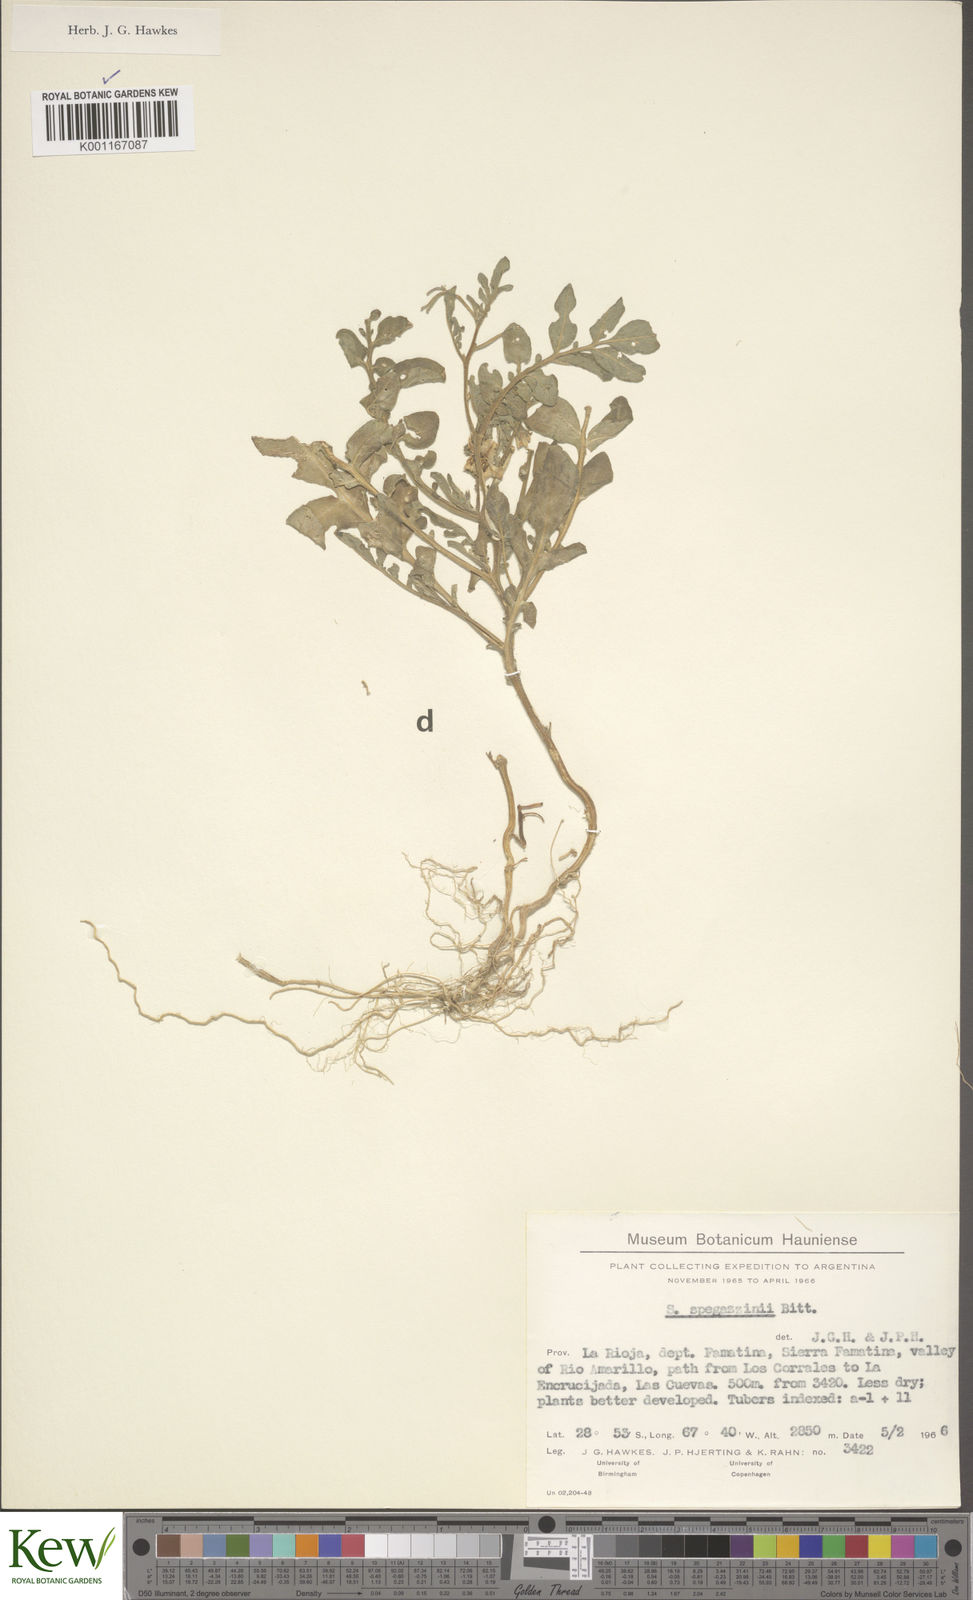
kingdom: Plantae
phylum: Tracheophyta
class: Magnoliopsida
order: Solanales
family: Solanaceae
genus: Solanum
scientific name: Solanum brevicaule
